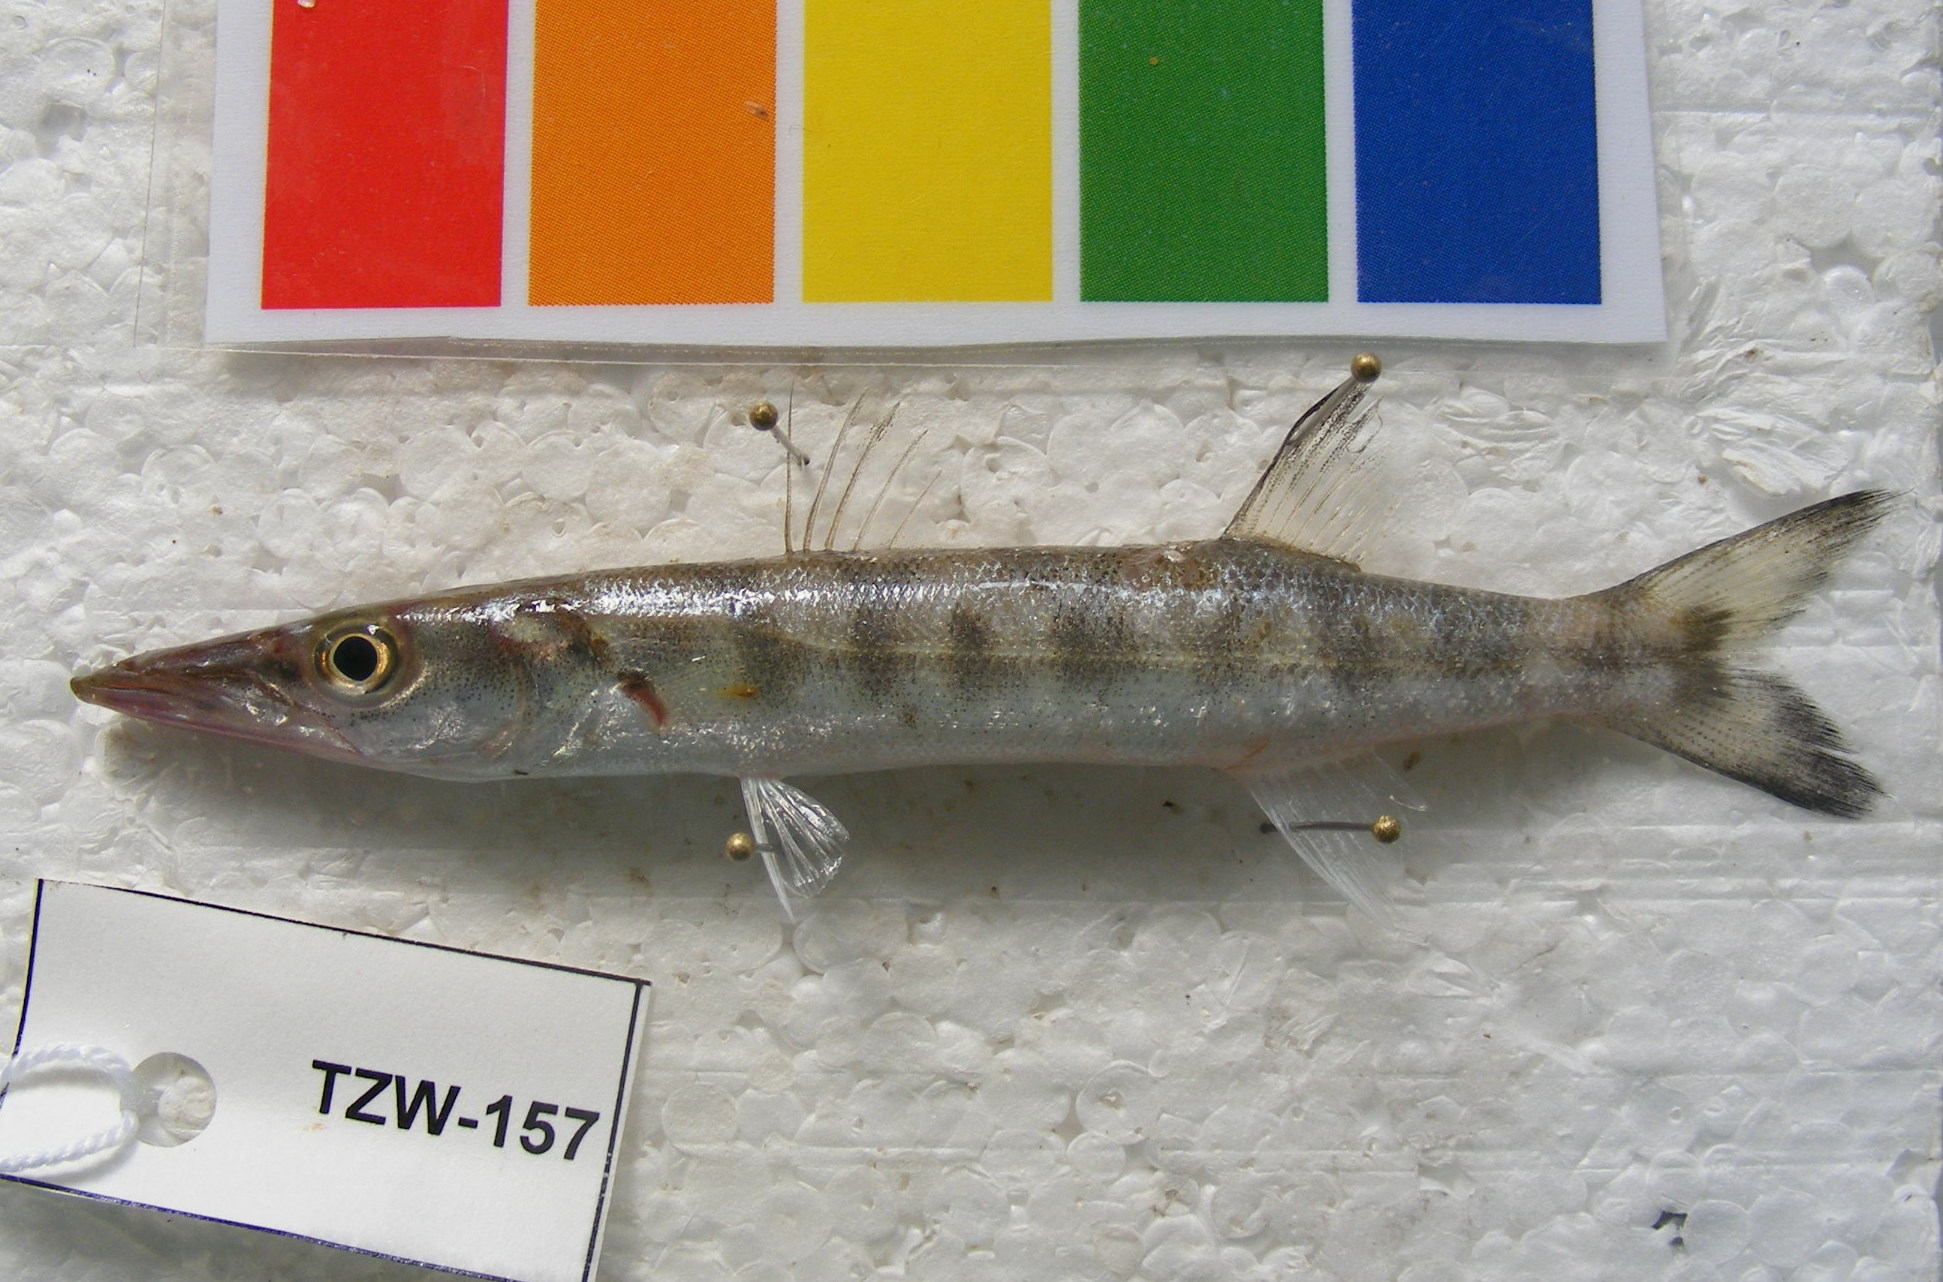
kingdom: Animalia
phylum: Chordata
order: Perciformes
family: Sphyraenidae
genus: Sphyraena
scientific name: Sphyraena jello
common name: Pickhandle barracuda
